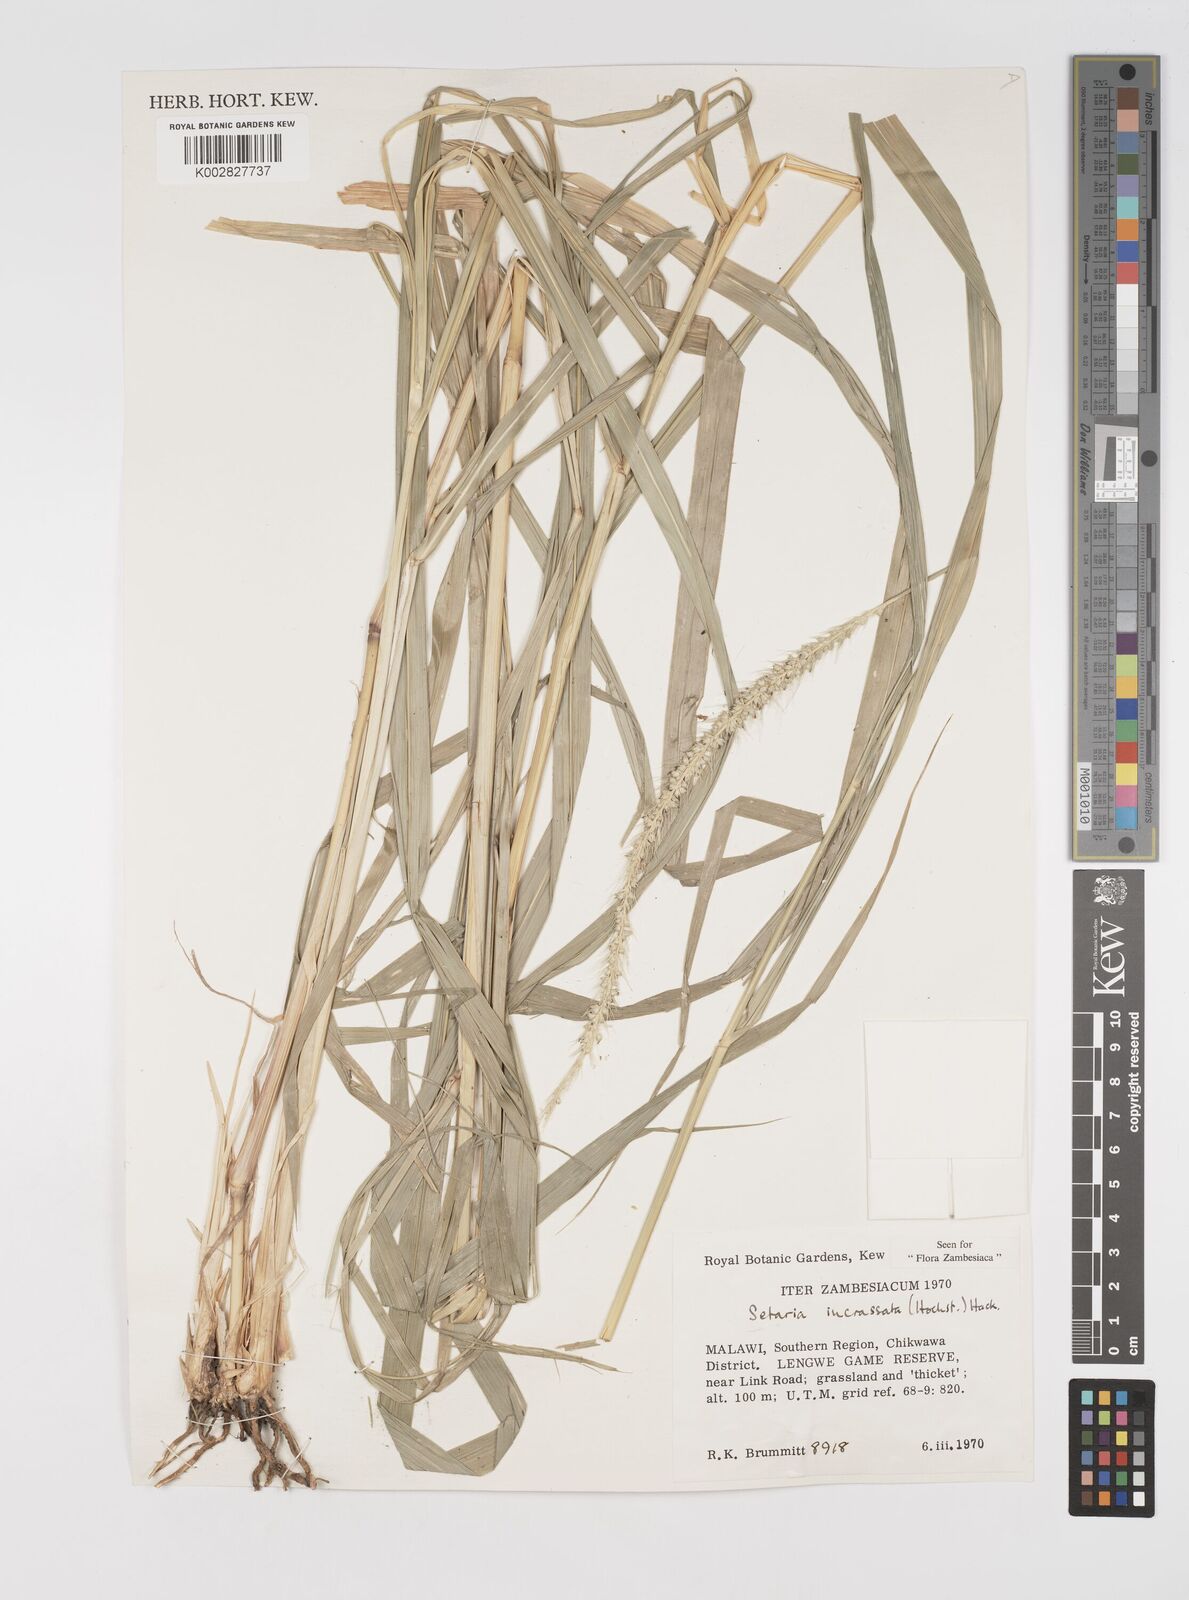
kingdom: Plantae
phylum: Tracheophyta
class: Liliopsida
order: Poales
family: Poaceae
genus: Setaria
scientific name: Setaria incrassata
